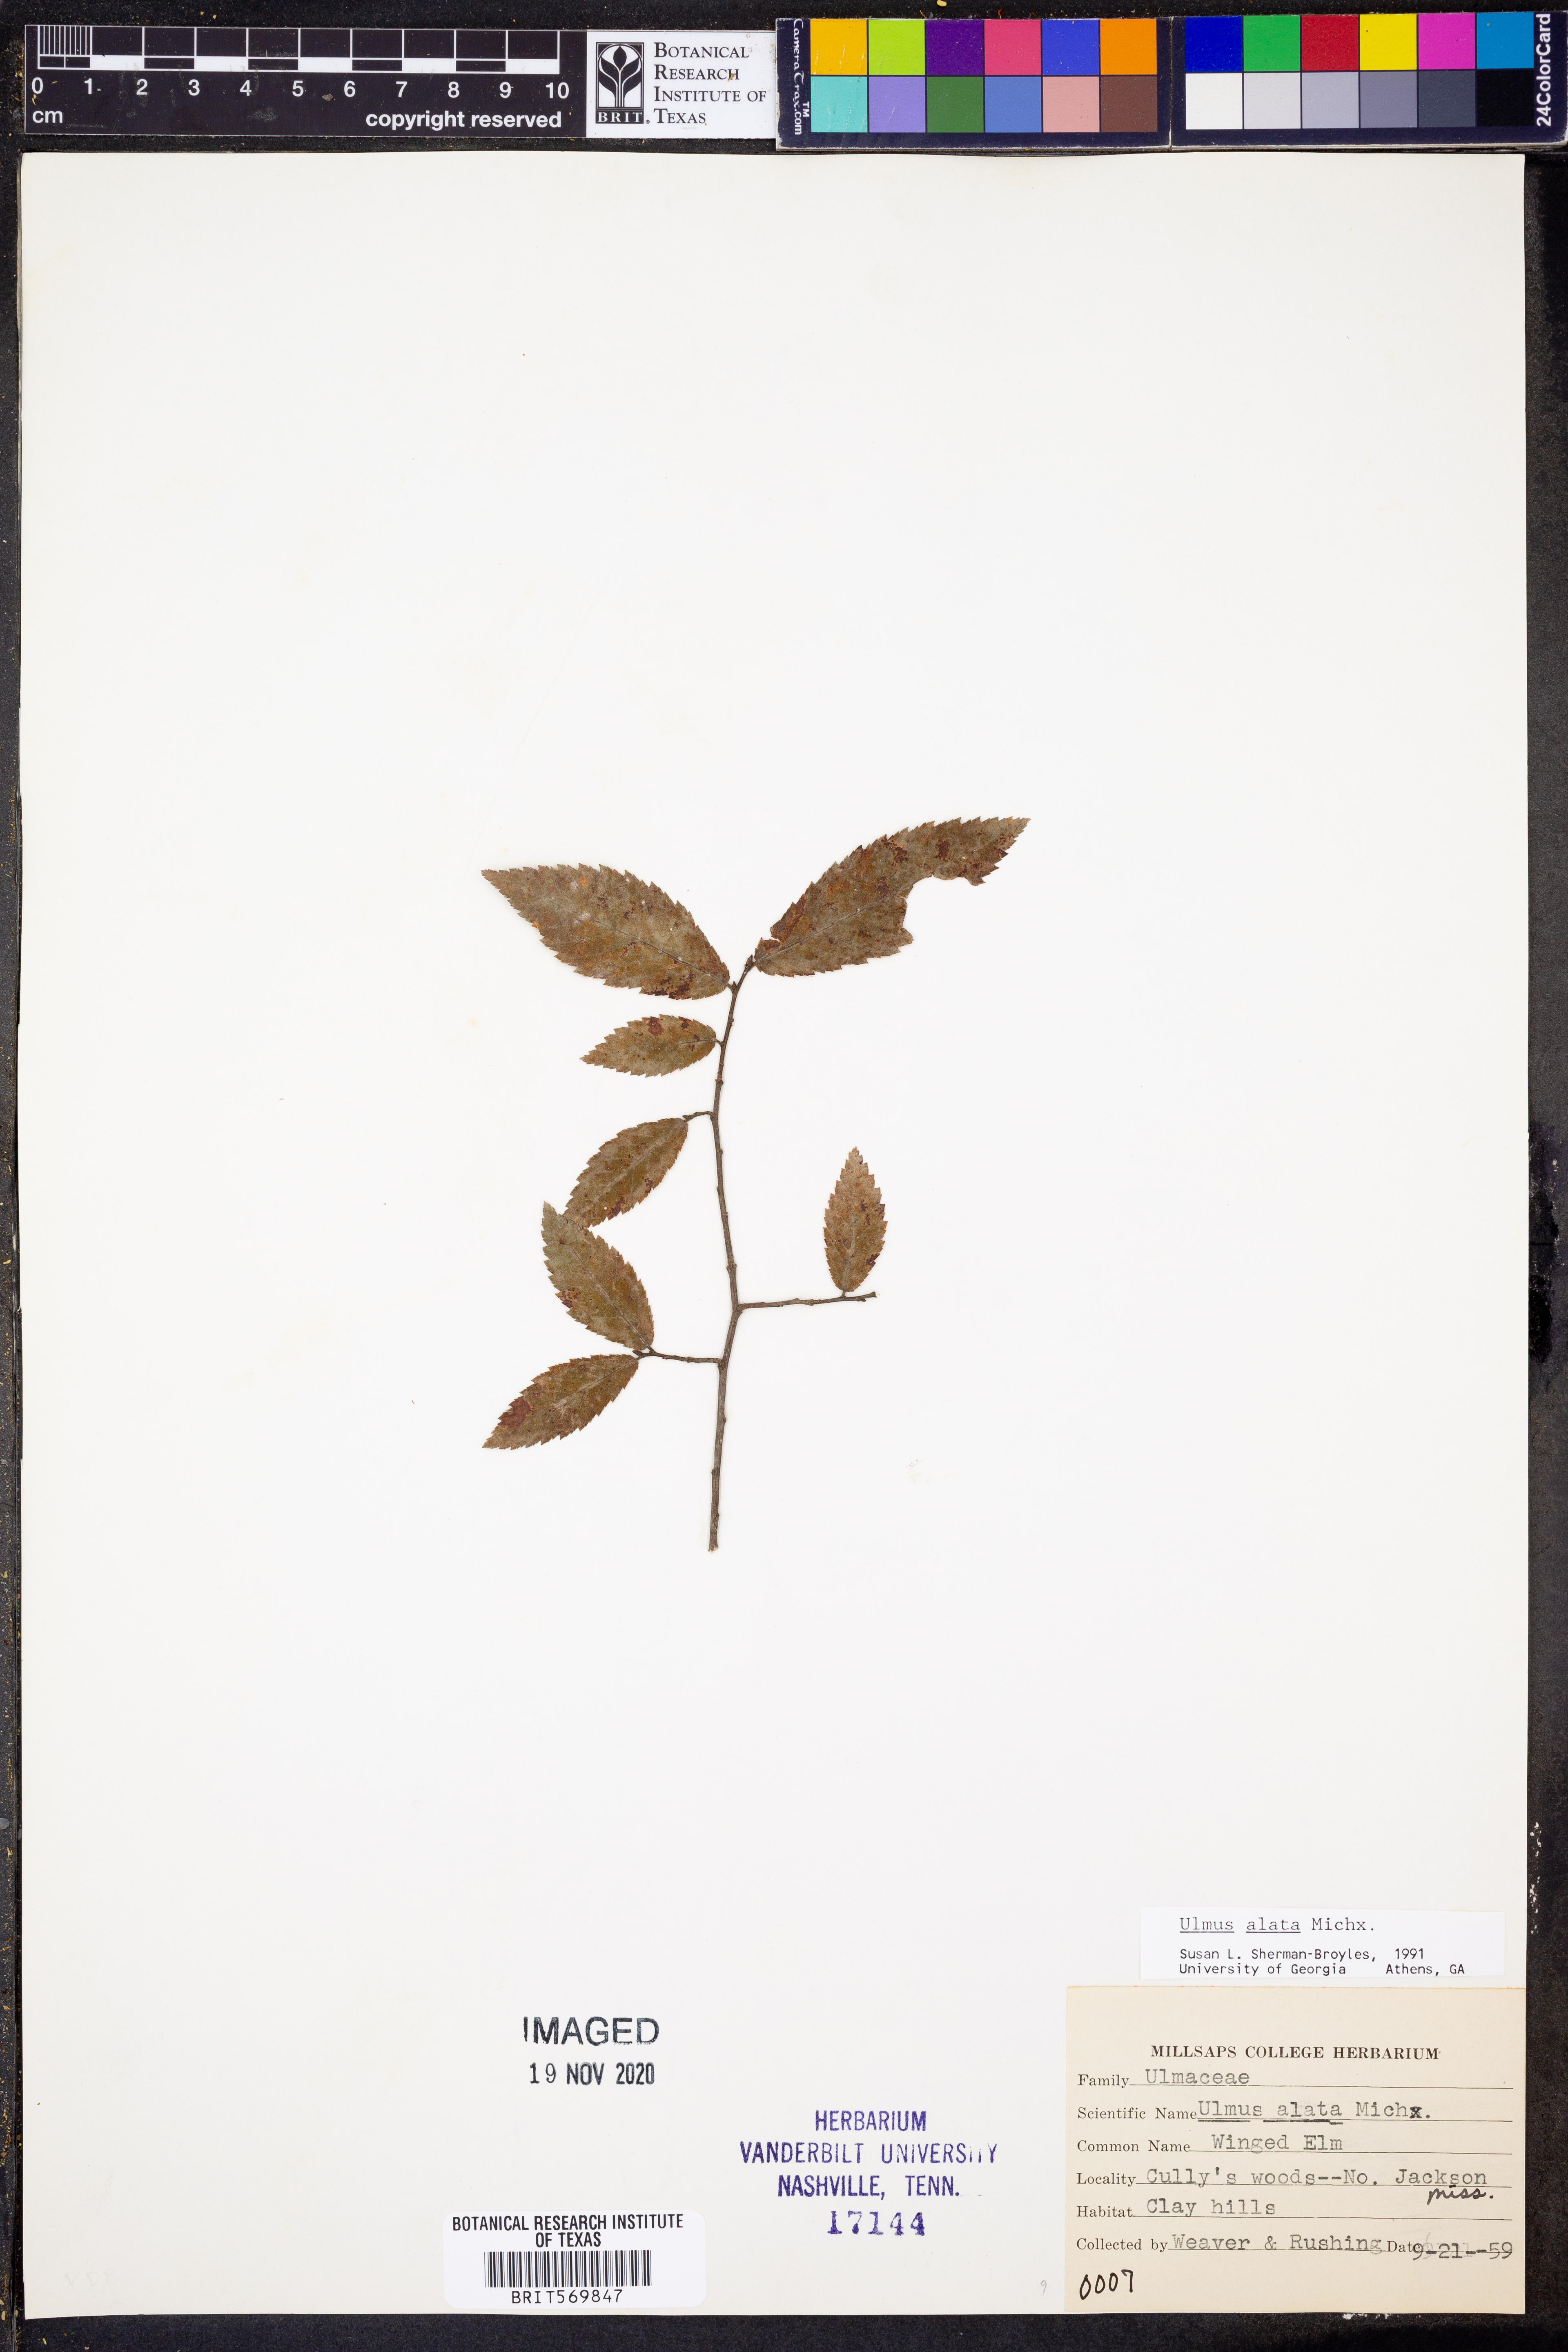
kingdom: Plantae
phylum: Tracheophyta
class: Magnoliopsida
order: Rosales
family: Ulmaceae
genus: Ulmus
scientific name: Ulmus alata
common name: Winged elm
